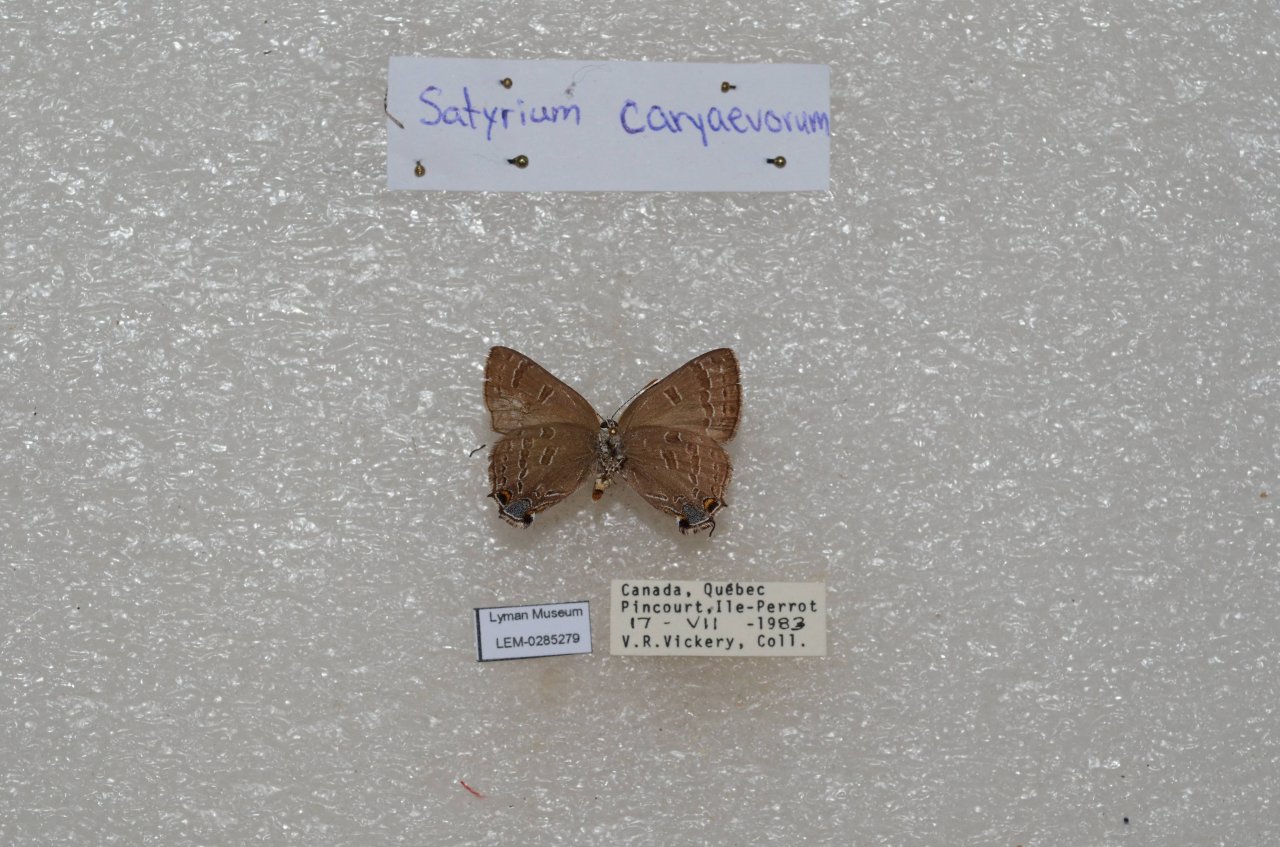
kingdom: Animalia
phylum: Arthropoda
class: Insecta
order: Lepidoptera
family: Lycaenidae
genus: Strymon
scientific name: Strymon caryaevorus
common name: Hickory Hairstreak
